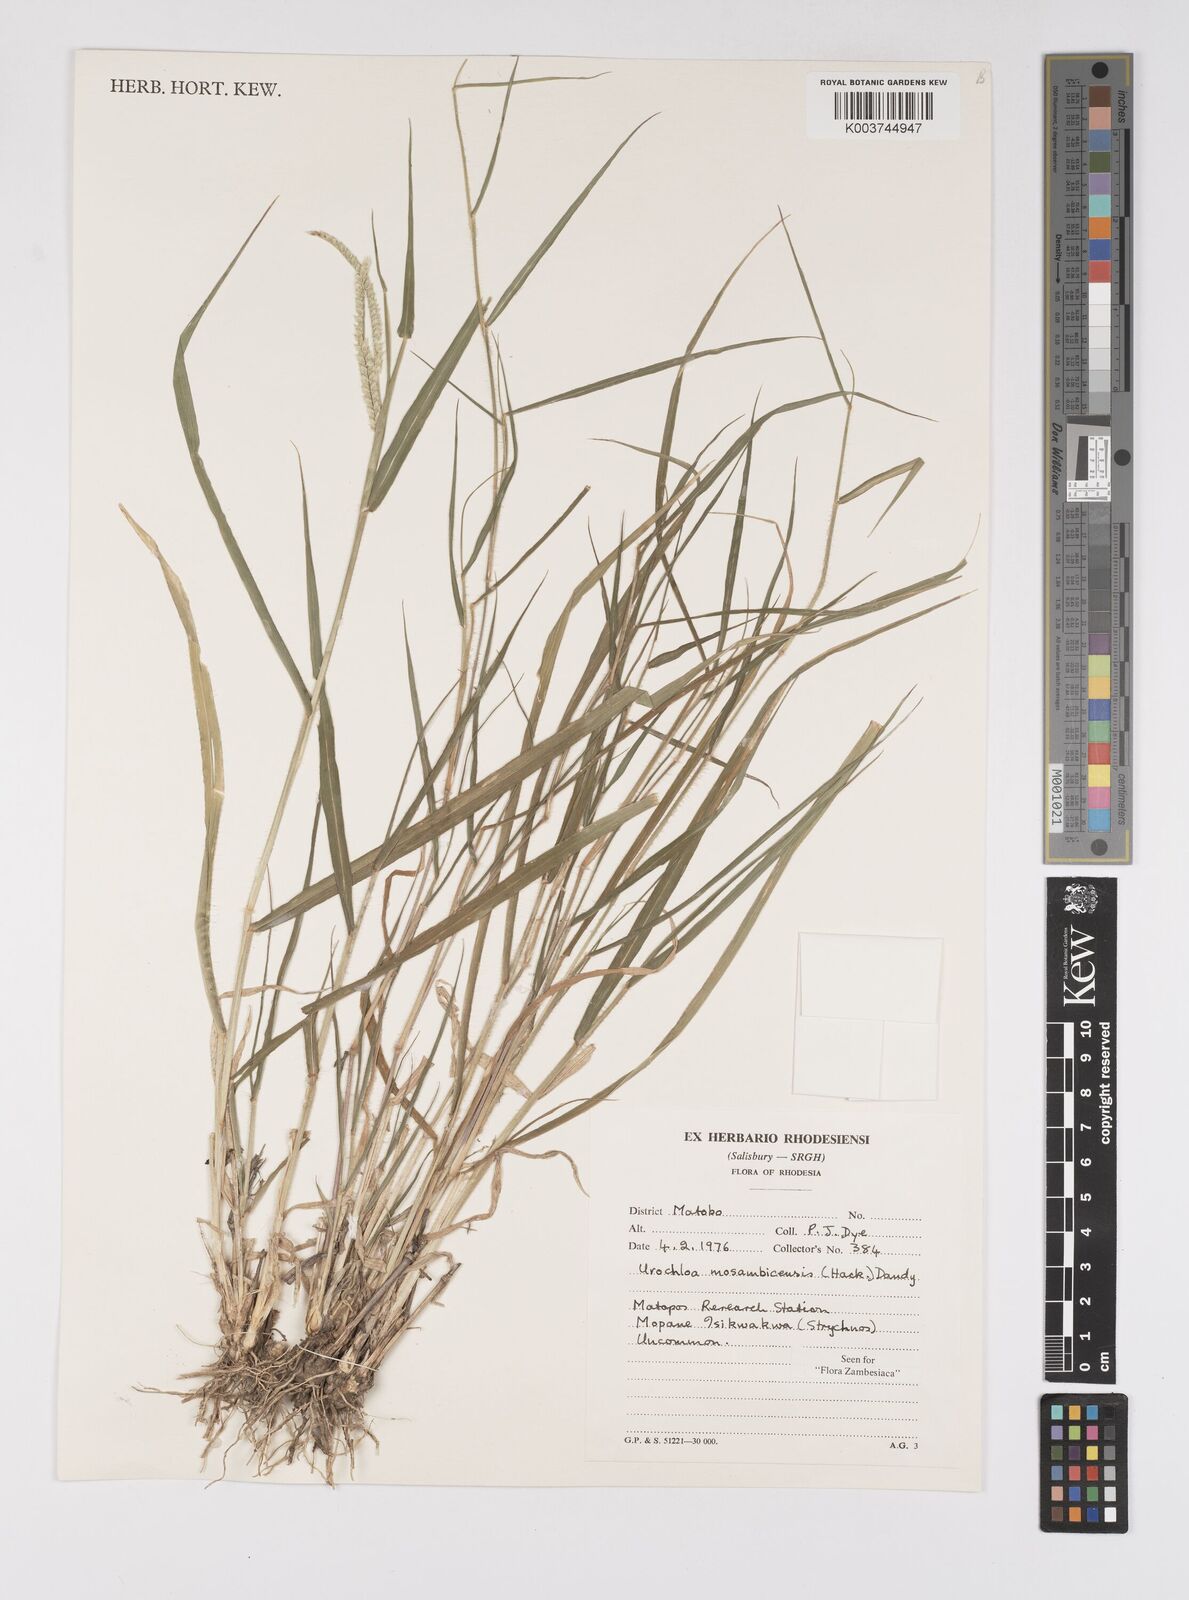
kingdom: Plantae
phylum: Tracheophyta
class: Liliopsida
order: Poales
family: Poaceae
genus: Urochloa
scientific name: Urochloa trichopus
